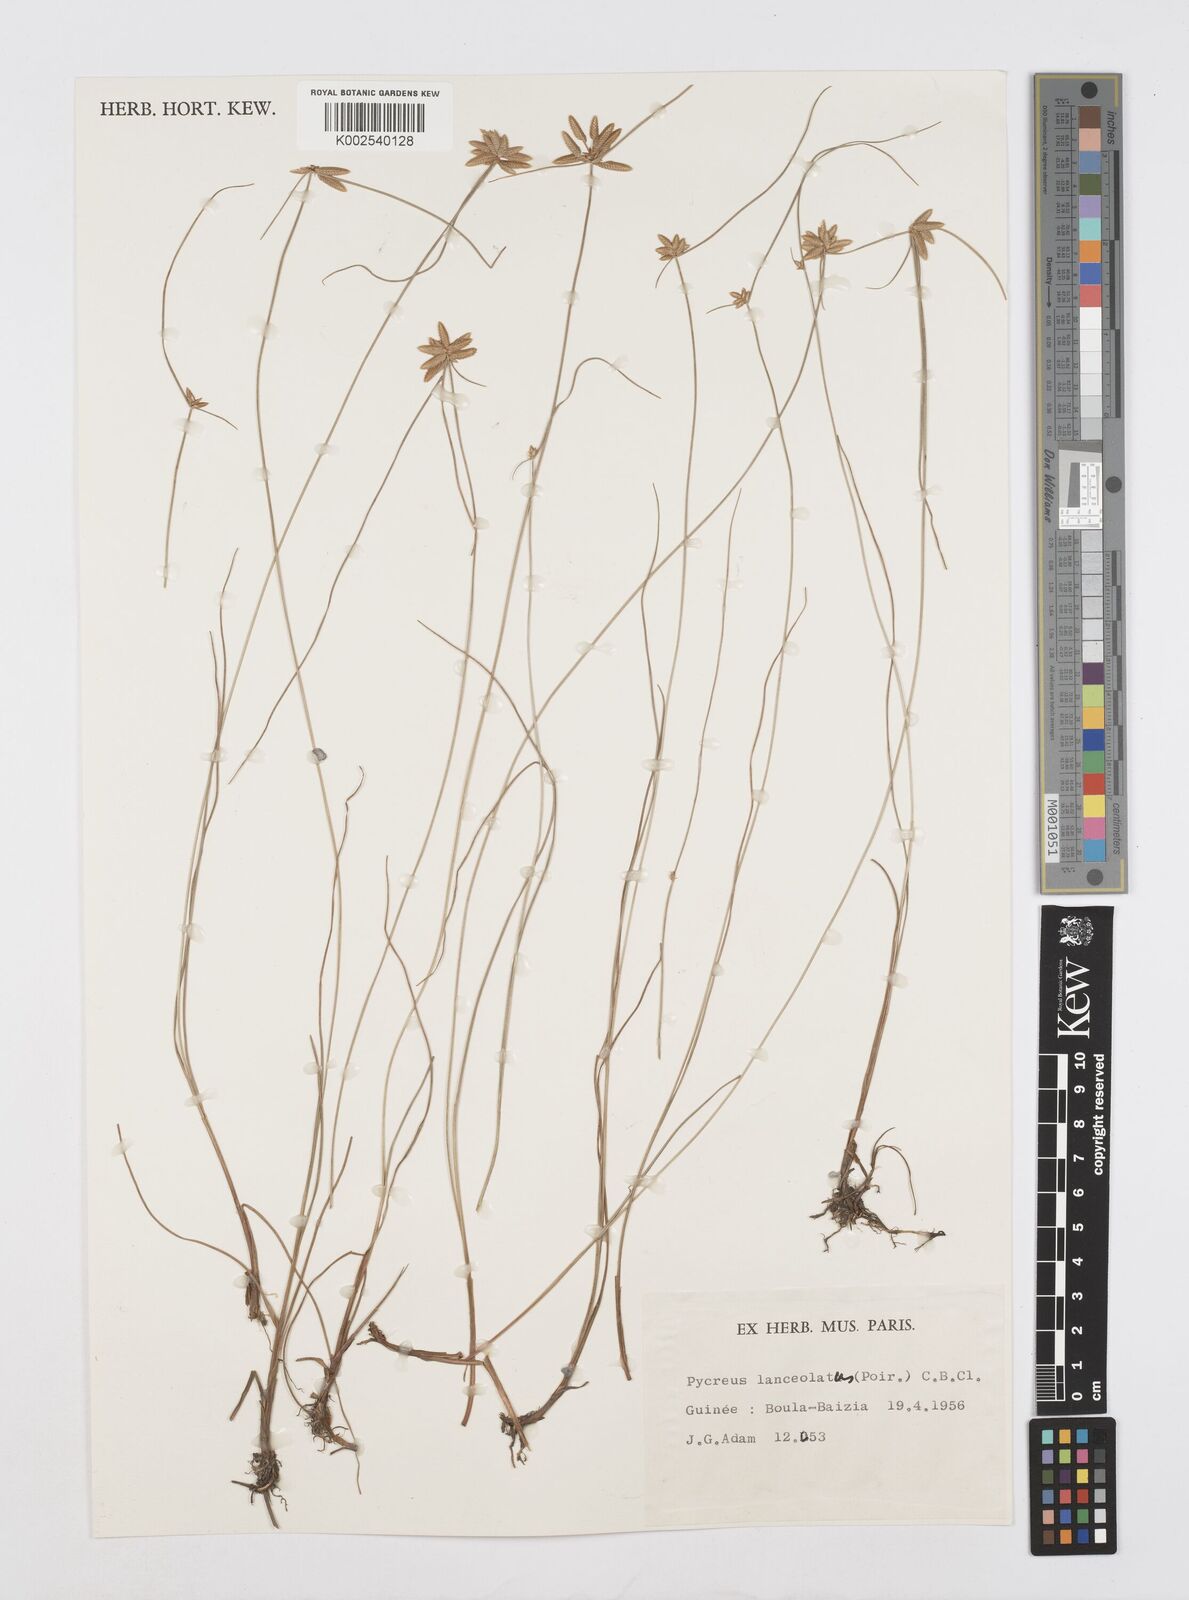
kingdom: Plantae
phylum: Tracheophyta
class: Liliopsida
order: Poales
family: Cyperaceae
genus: Cyperus
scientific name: Cyperus
